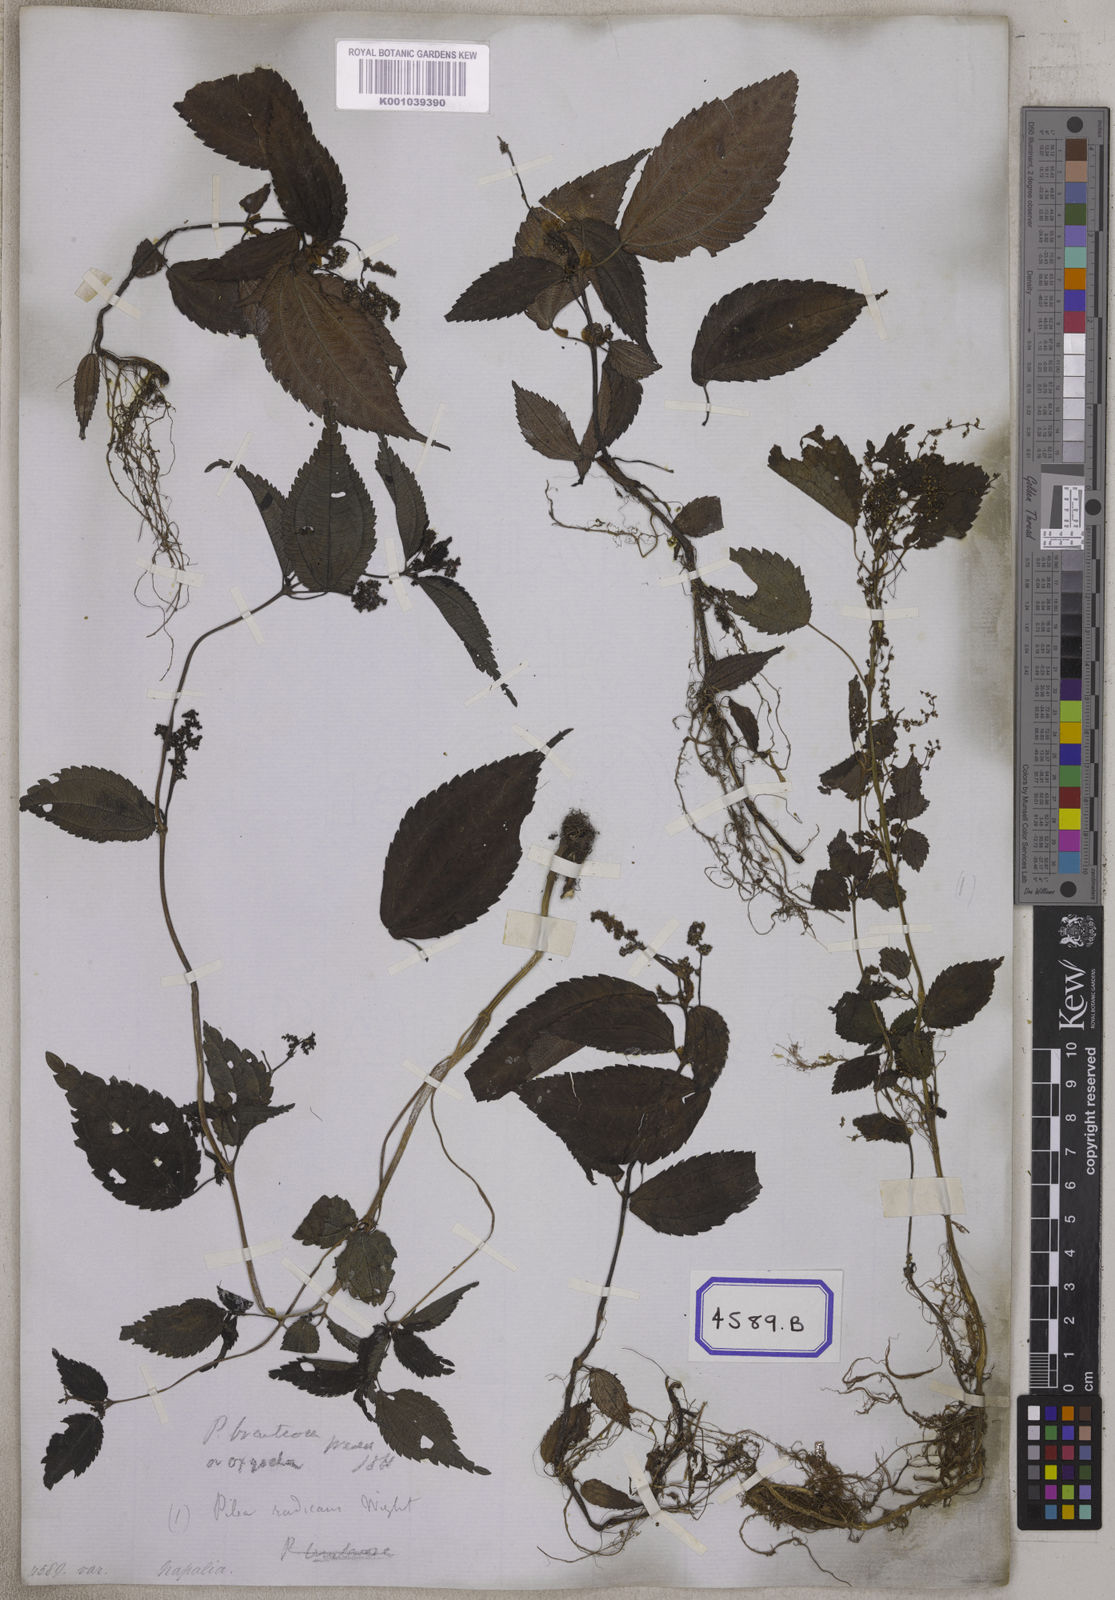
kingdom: Plantae
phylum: Tracheophyta
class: Magnoliopsida
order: Rosales
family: Urticaceae
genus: Pilea
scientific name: Pilea umbrosa
